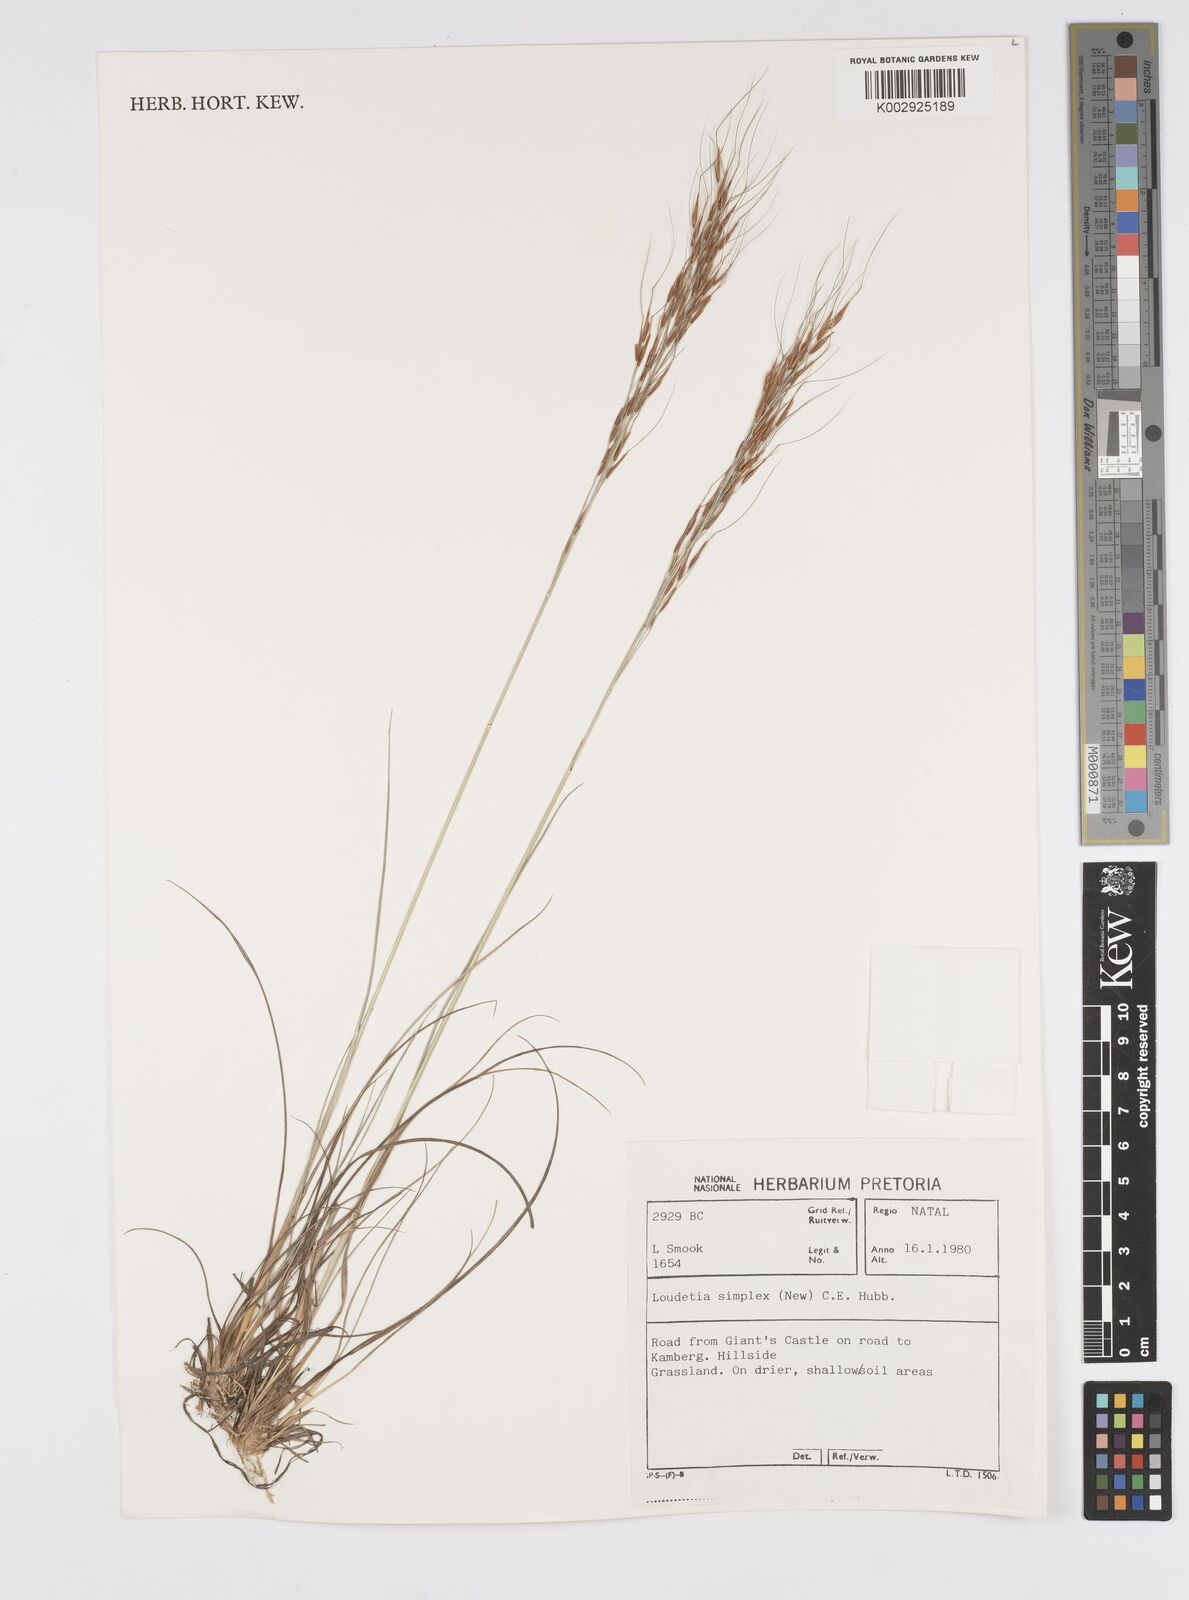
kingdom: Plantae
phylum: Tracheophyta
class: Liliopsida
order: Poales
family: Poaceae
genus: Loudetia
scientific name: Loudetia simplex
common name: Common russet grass
